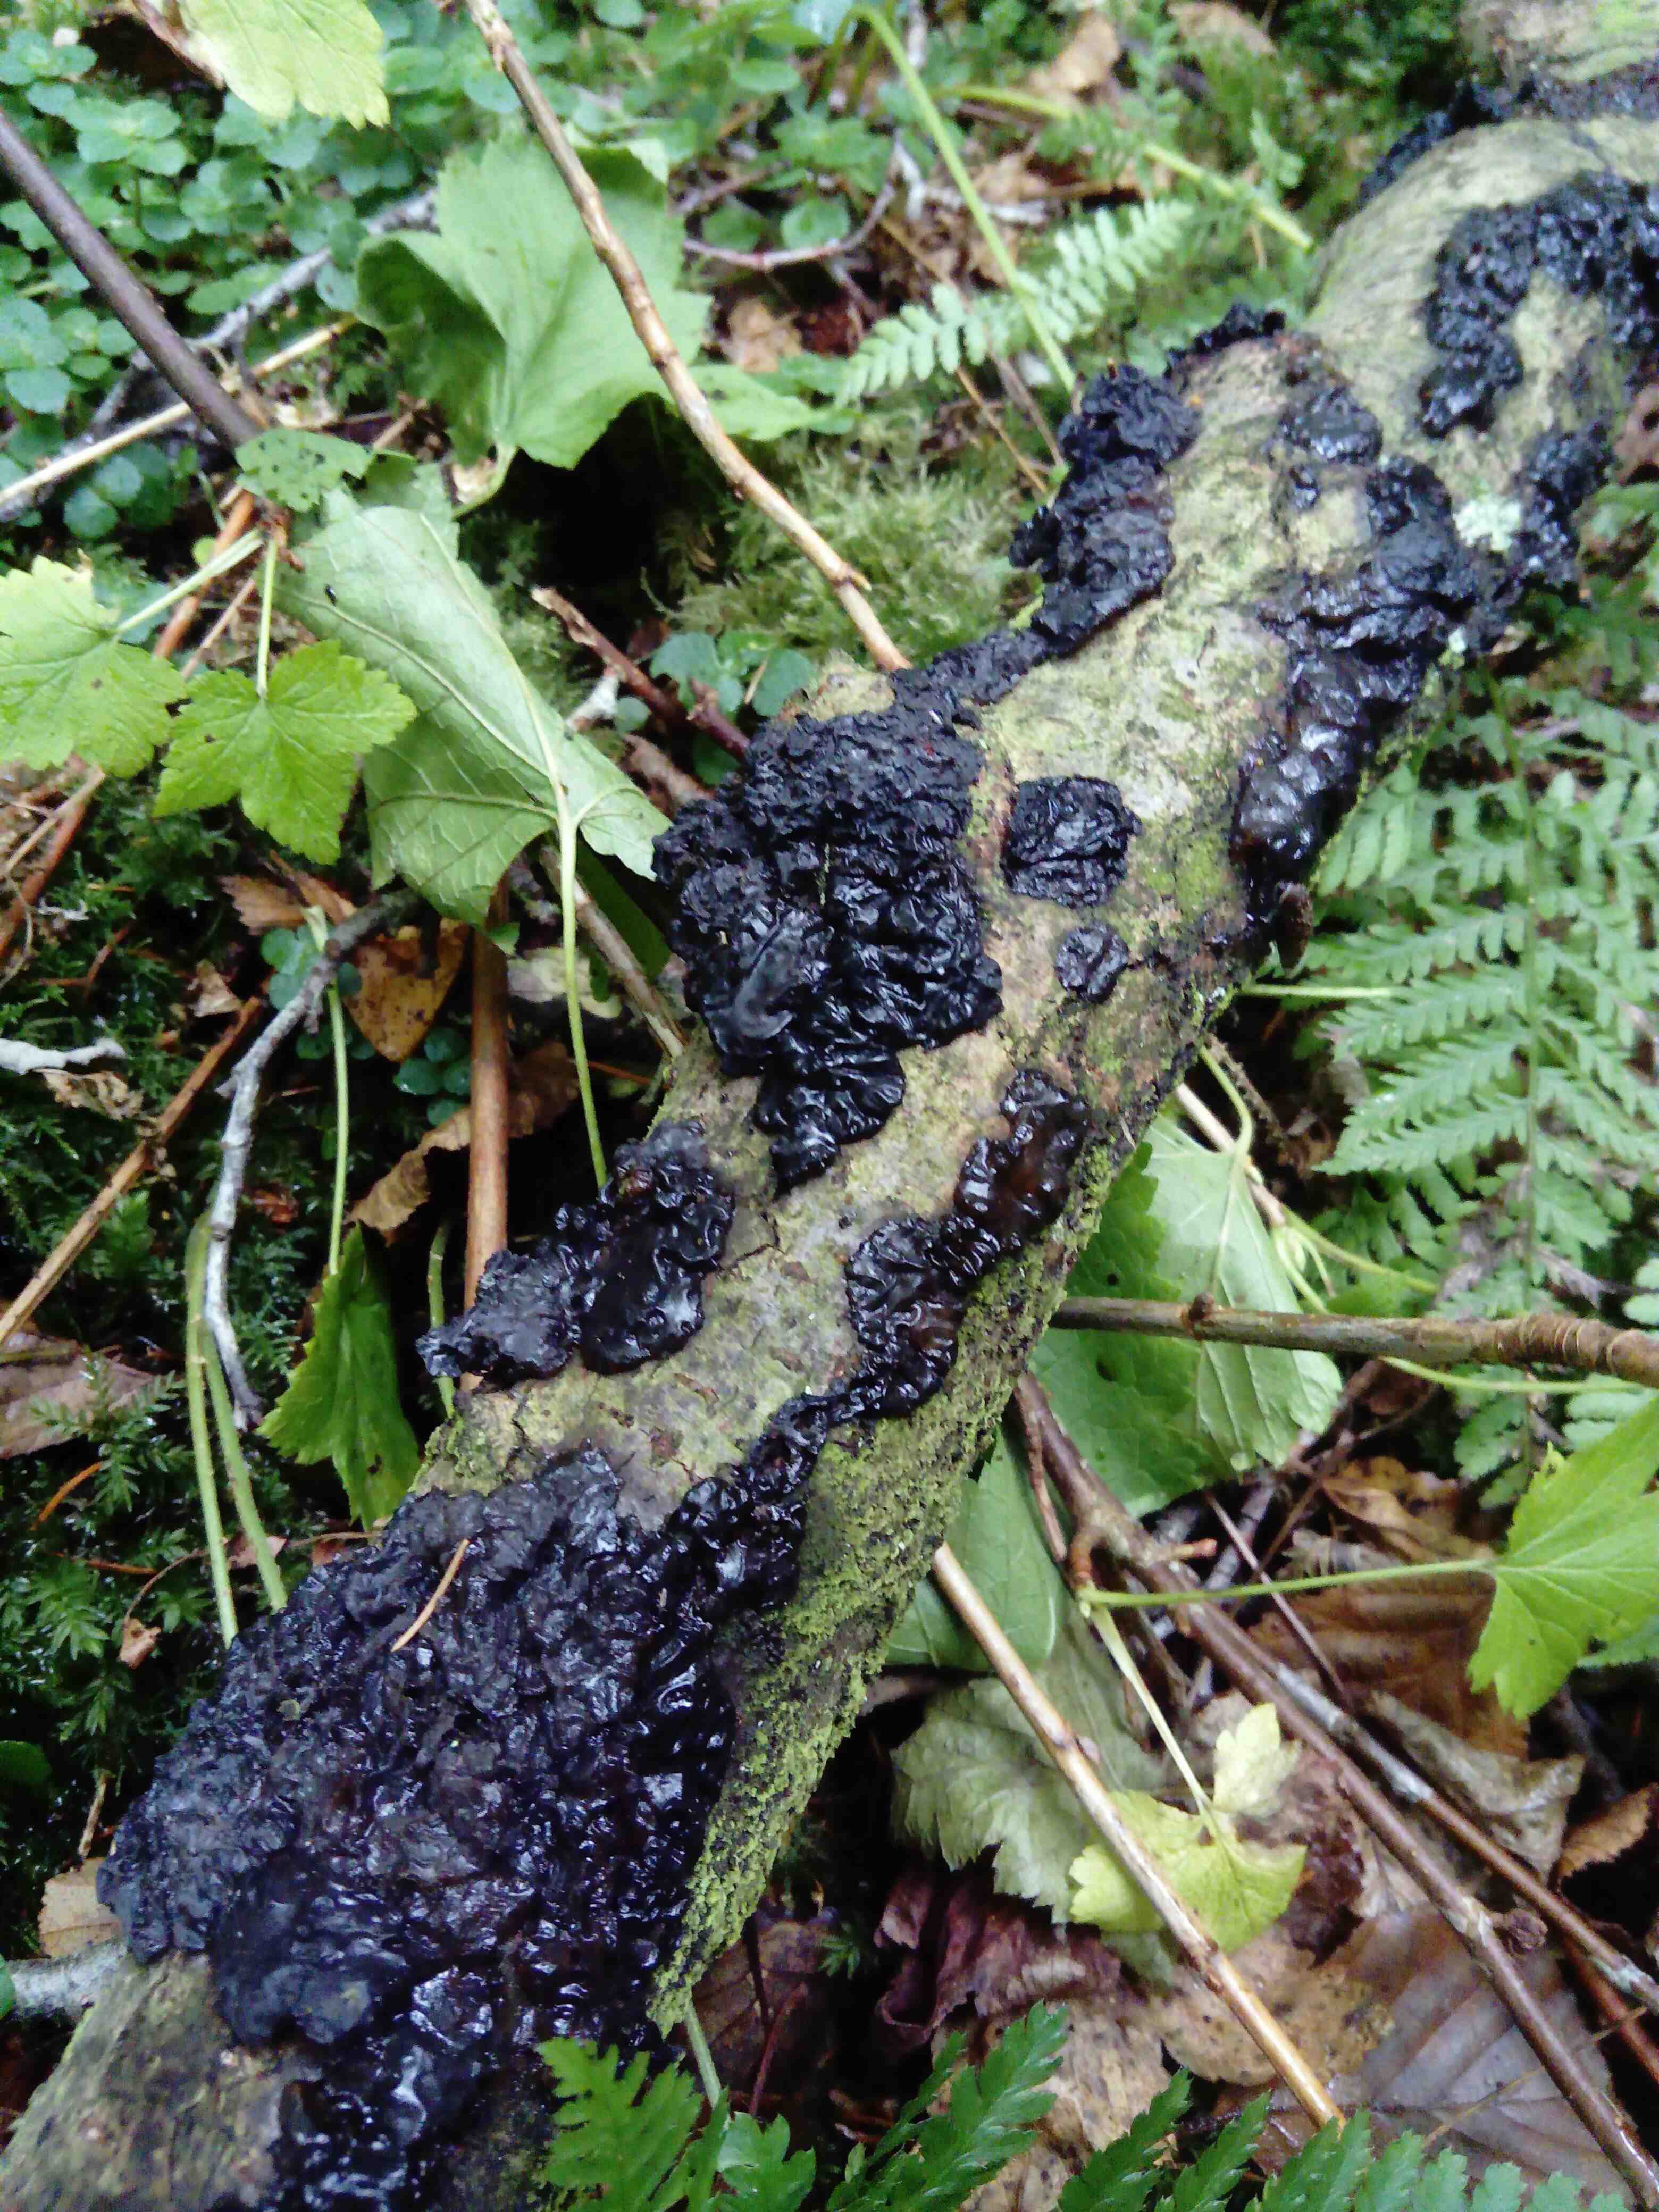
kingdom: Fungi
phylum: Basidiomycota
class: Agaricomycetes
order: Auriculariales
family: Auriculariaceae
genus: Exidia
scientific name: Exidia nigricans
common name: almindelig bævretop
